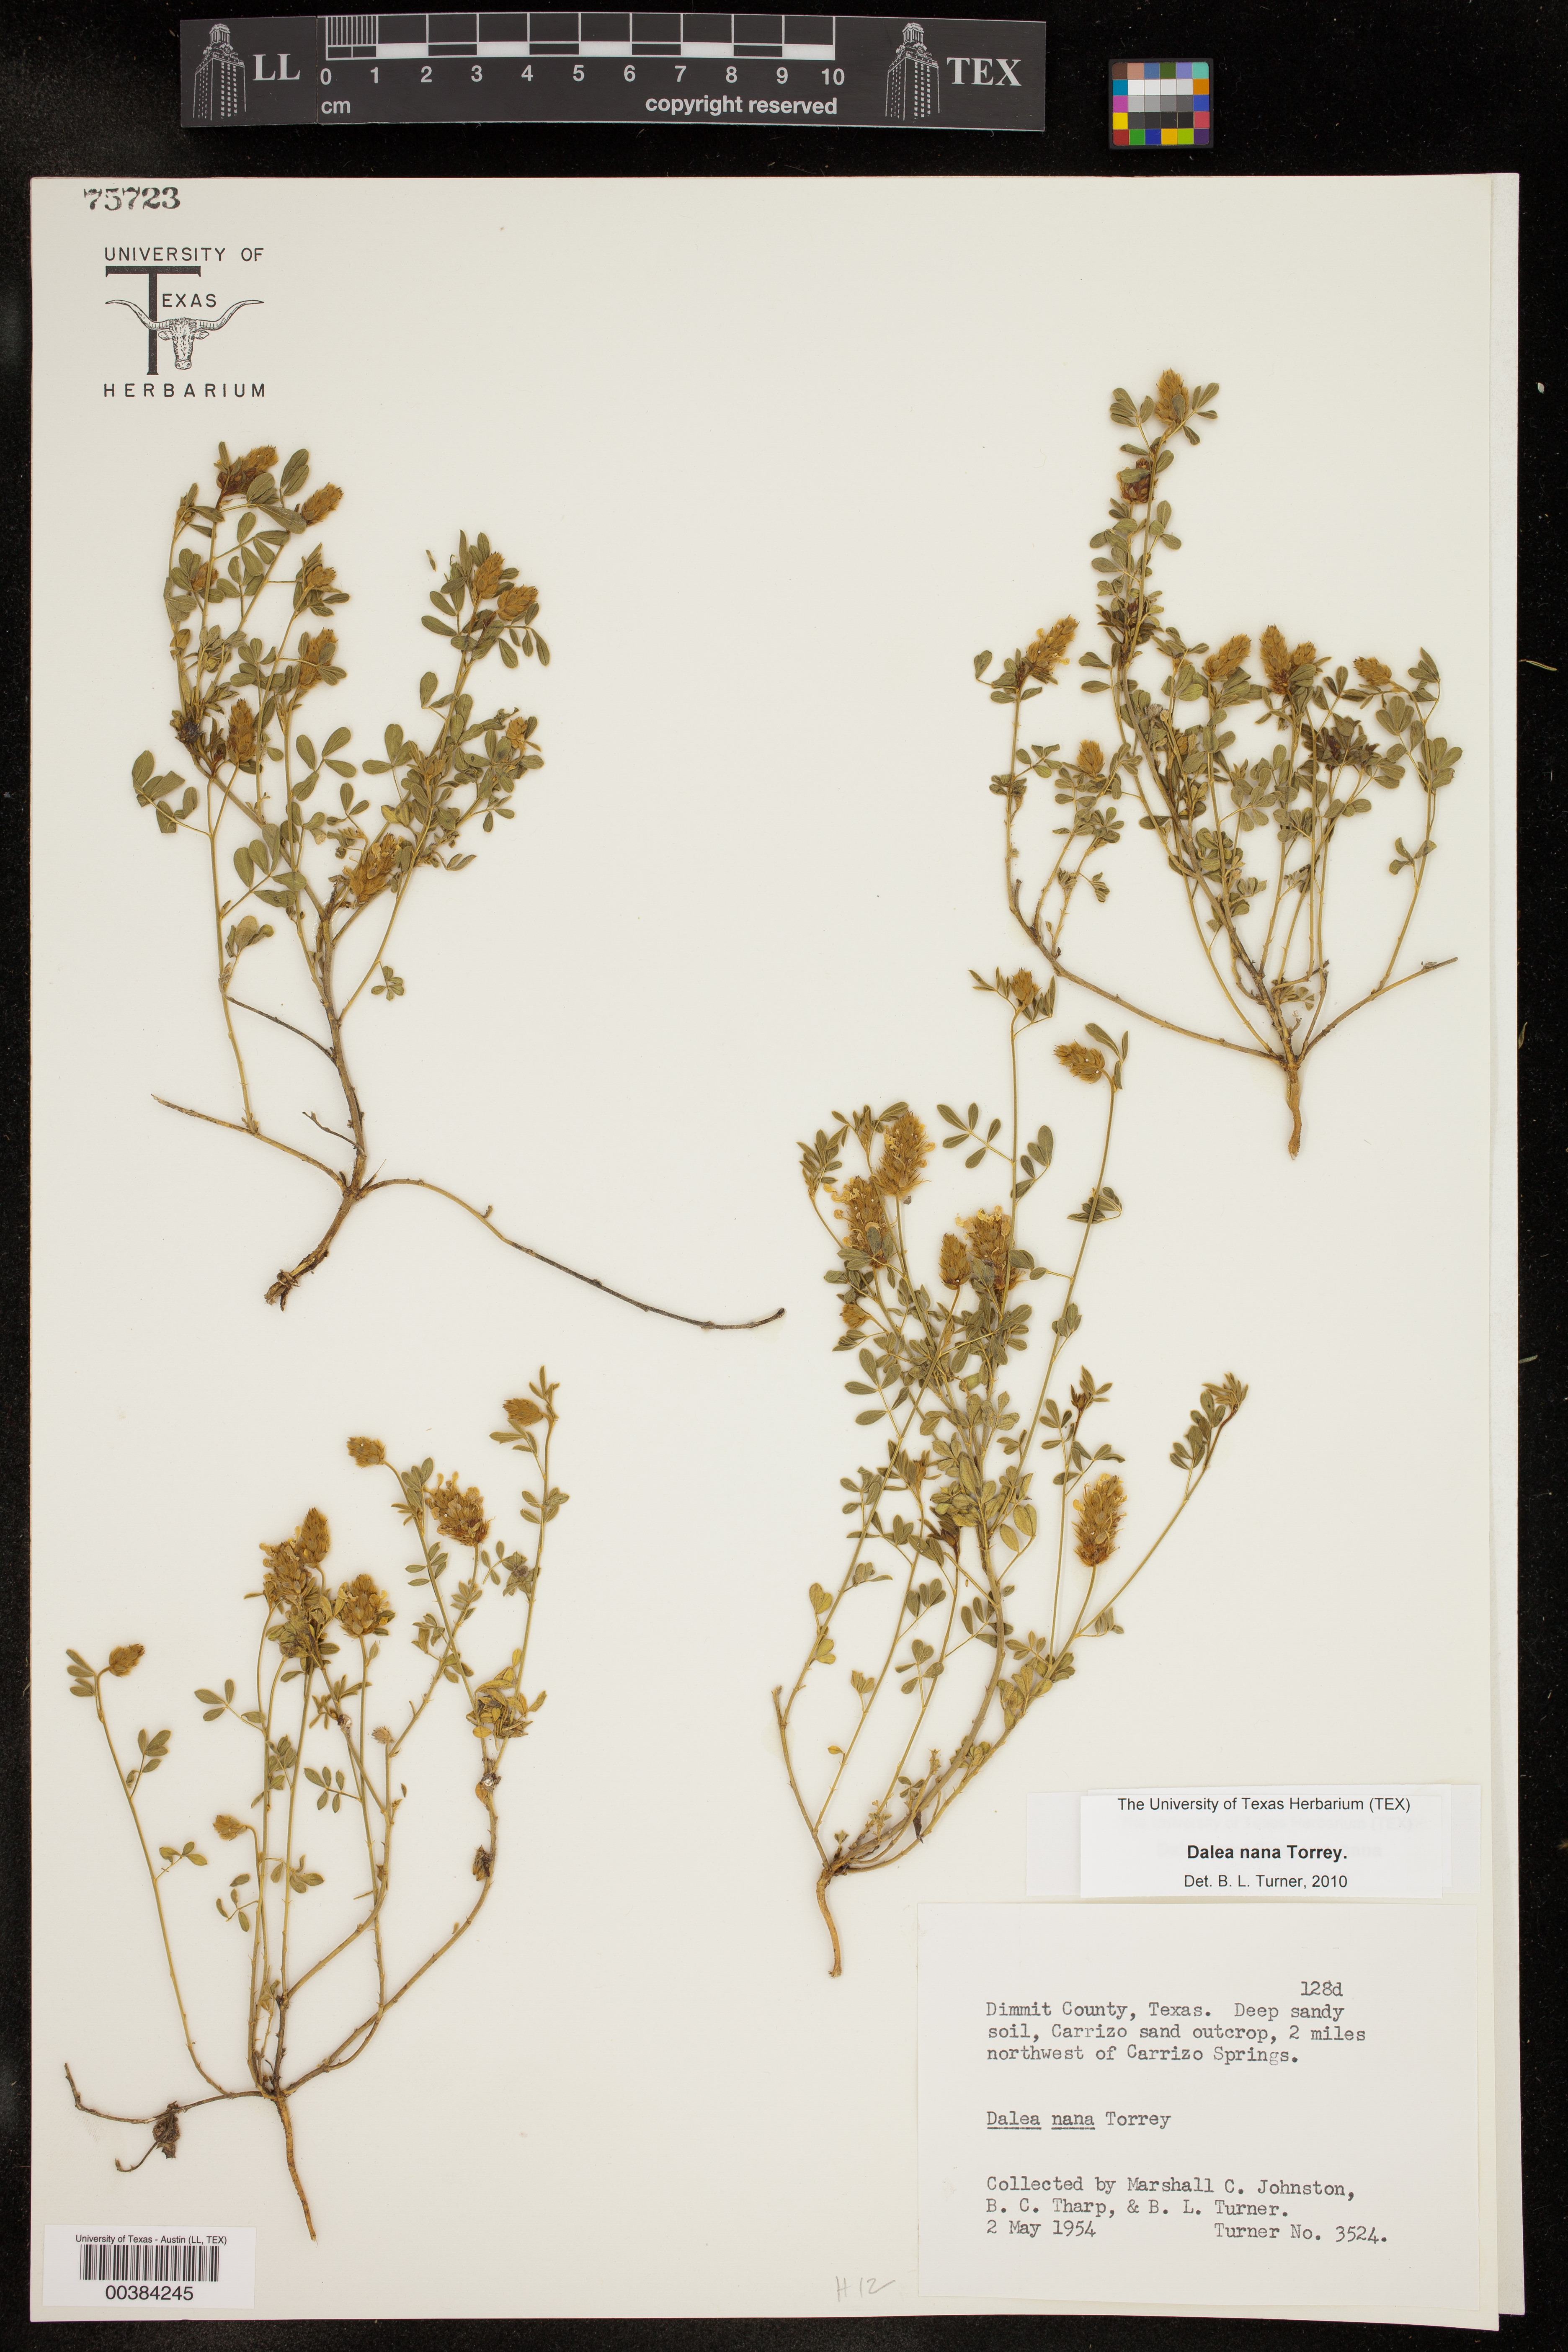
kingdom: Plantae
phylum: Tracheophyta
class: Magnoliopsida
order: Fabales
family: Fabaceae
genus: Dalea
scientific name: Dalea nana
